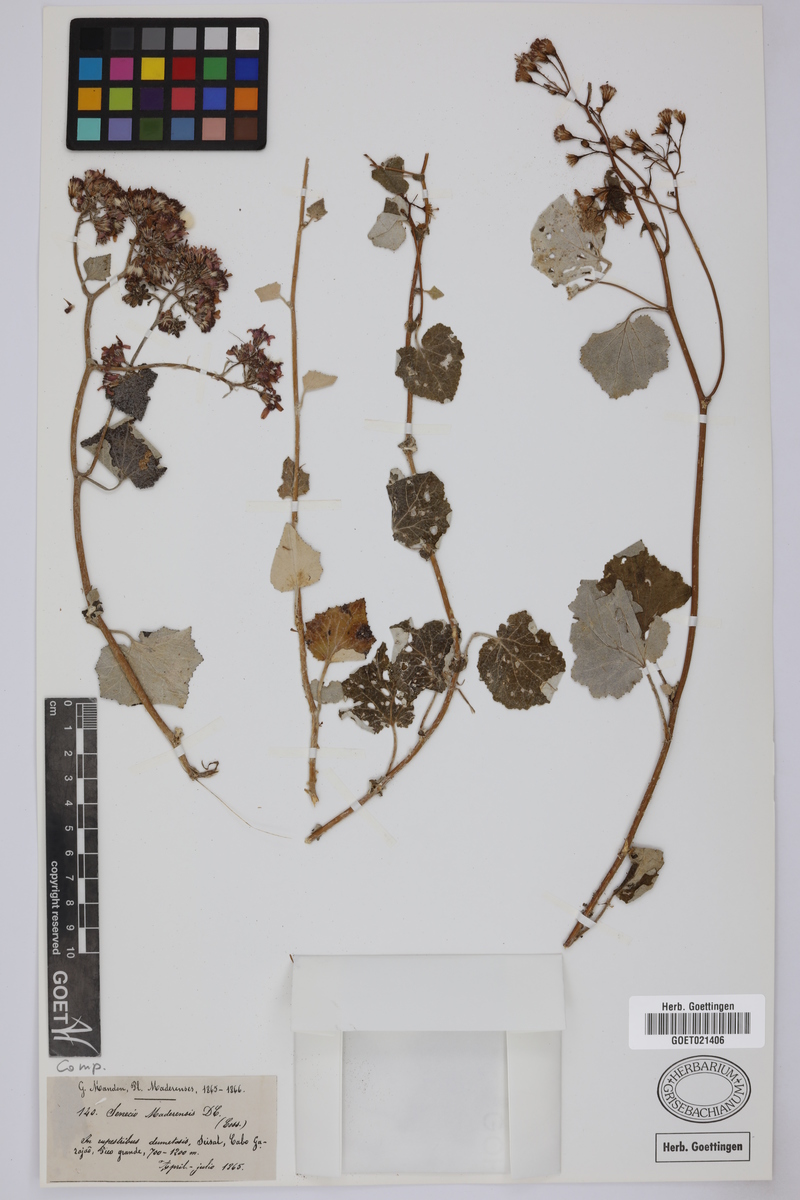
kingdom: Plantae
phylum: Tracheophyta
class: Magnoliopsida
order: Asterales
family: Asteraceae
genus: Pericallis
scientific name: Pericallis aurita
